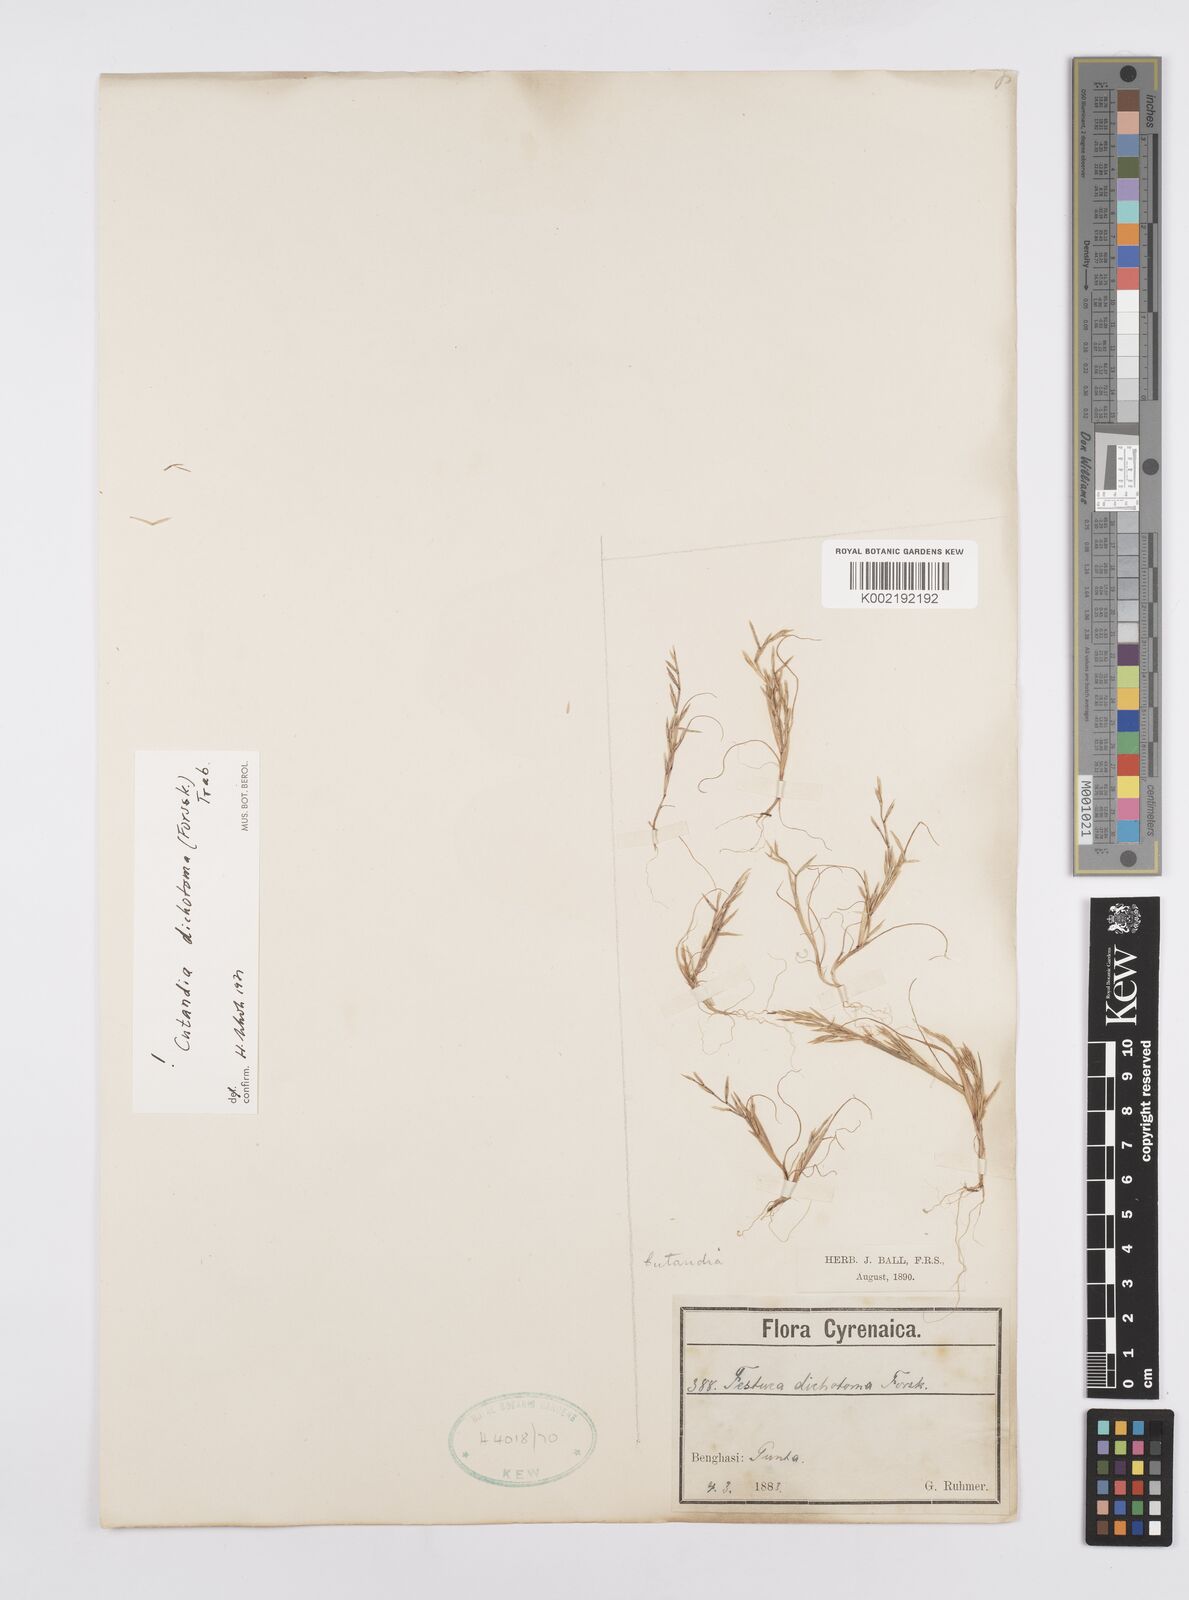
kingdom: Plantae
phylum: Tracheophyta
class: Liliopsida
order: Poales
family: Poaceae
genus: Cutandia
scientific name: Cutandia dichotoma
